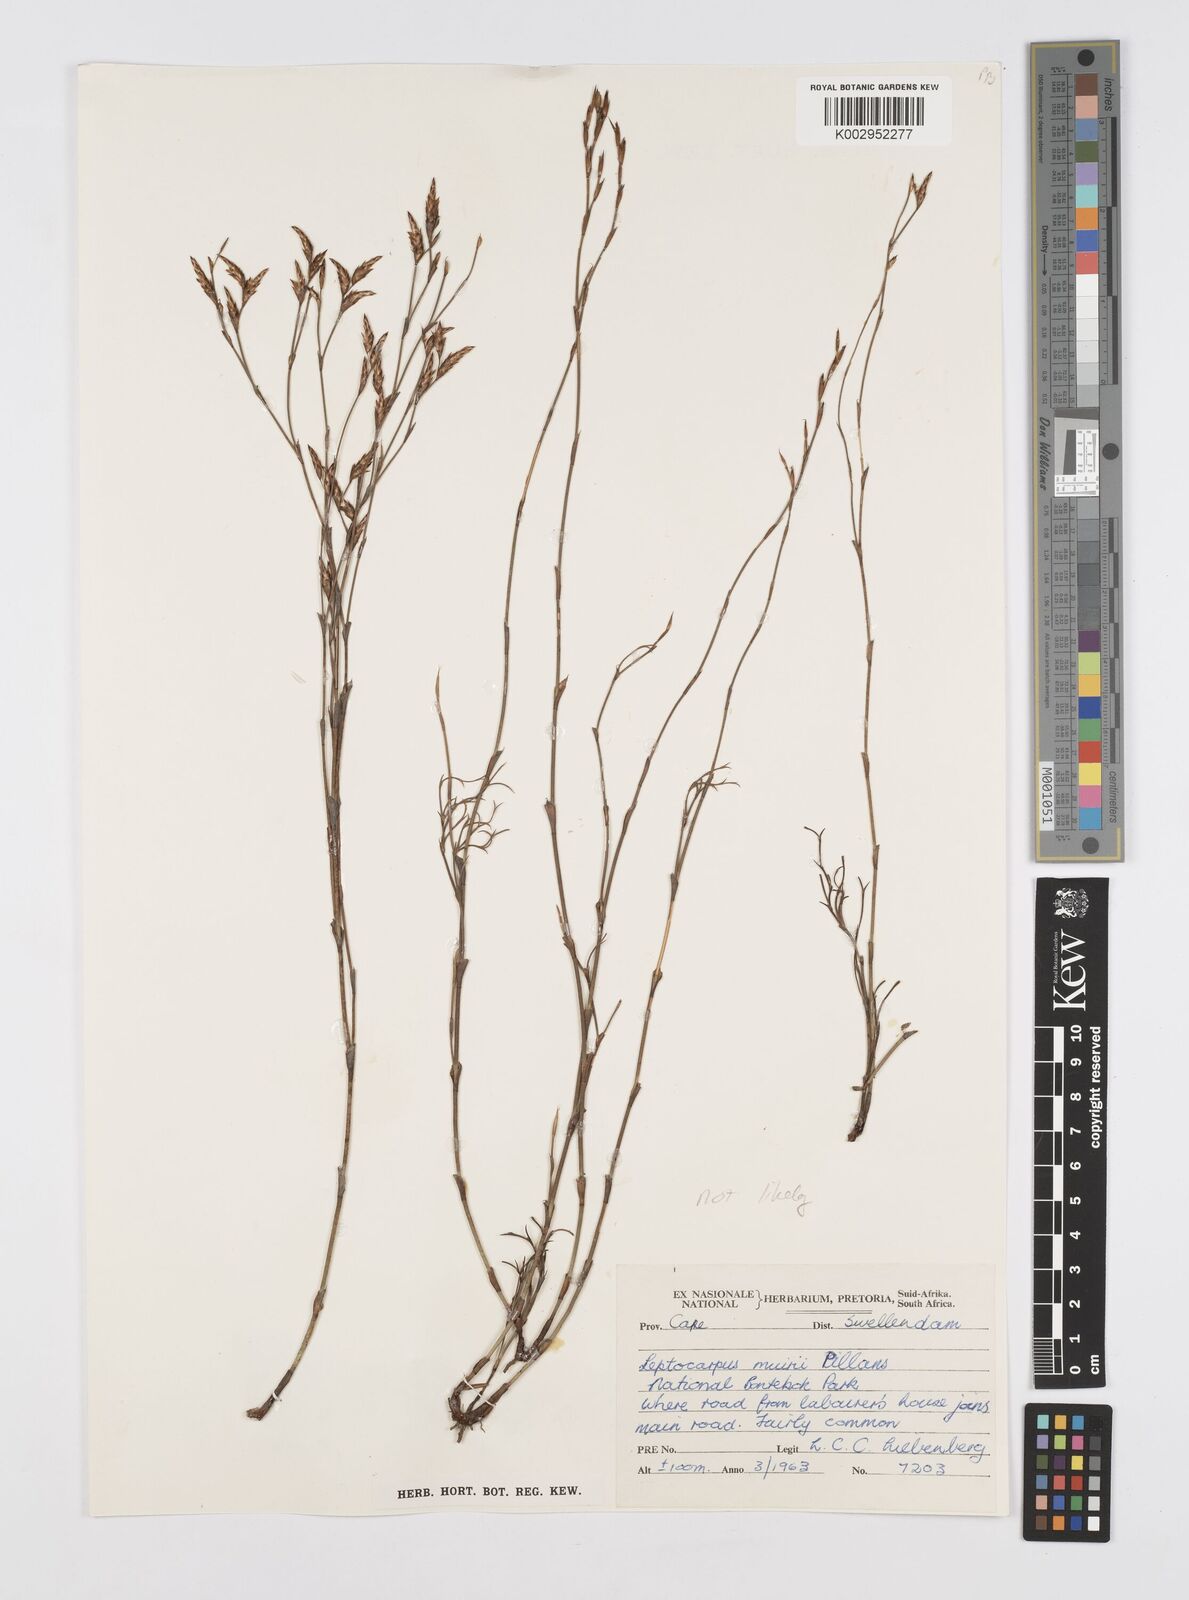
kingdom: Plantae
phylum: Tracheophyta
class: Liliopsida
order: Poales
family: Restionaceae
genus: Restio
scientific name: Restio
